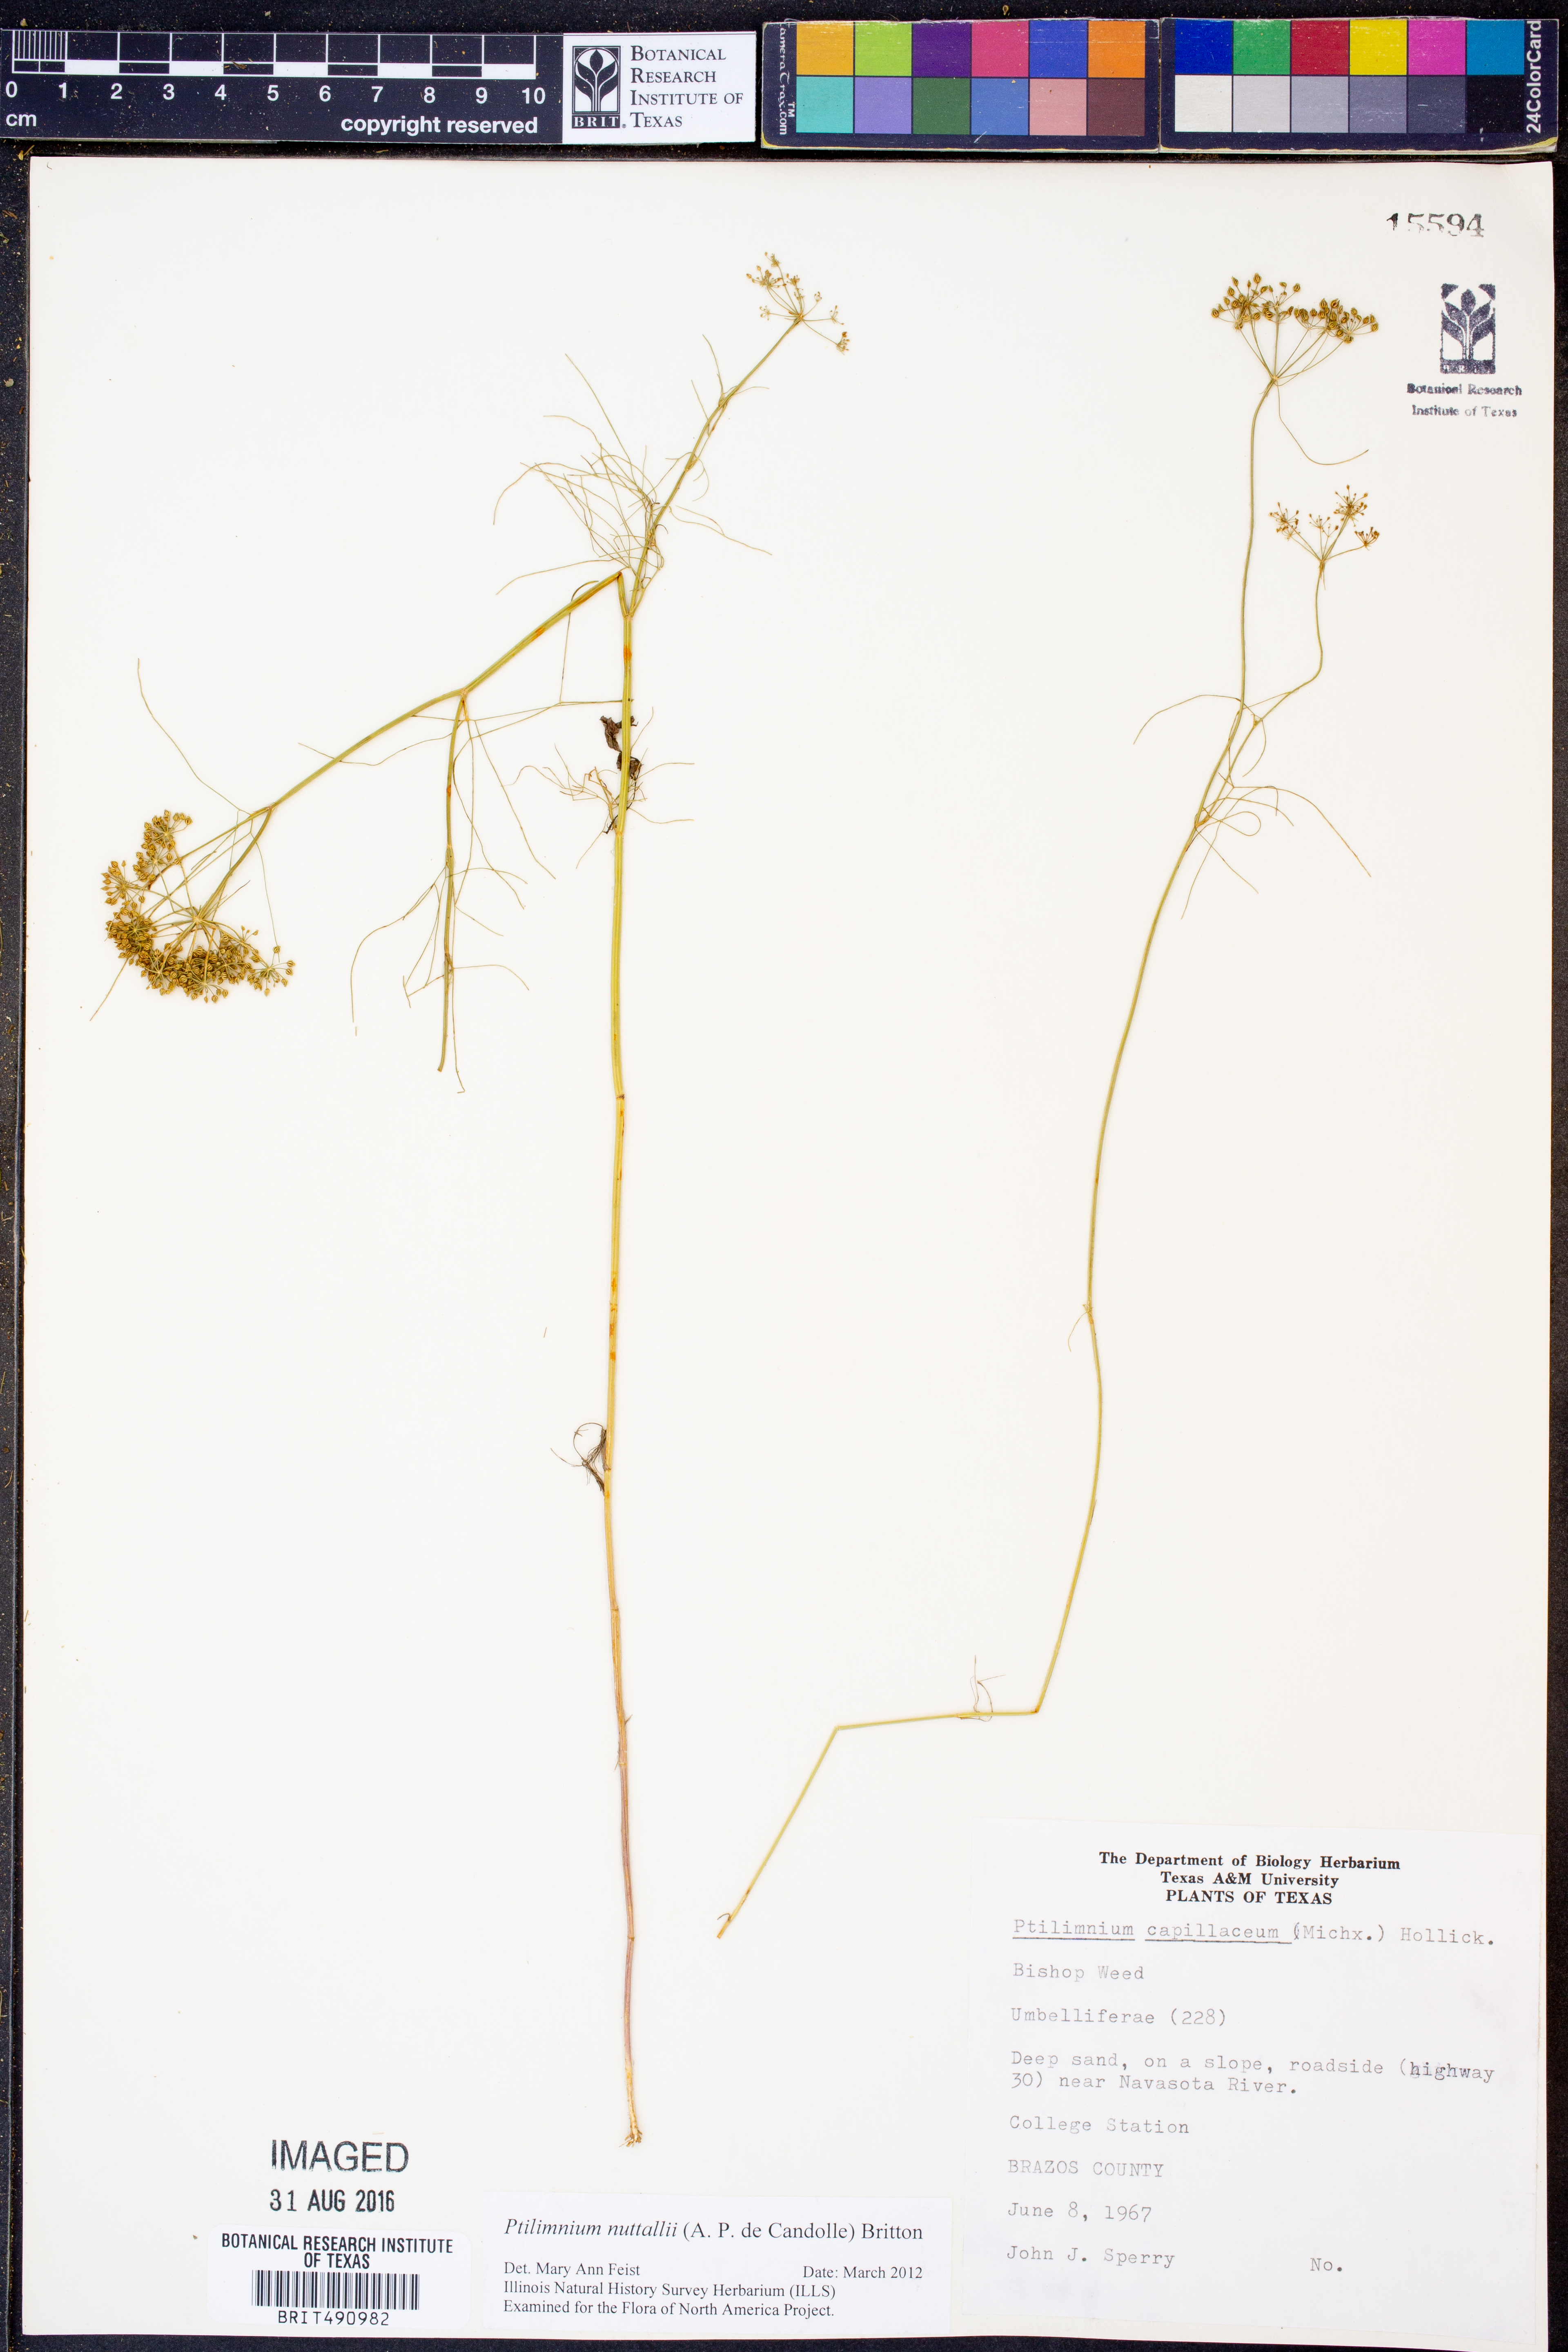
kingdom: Plantae
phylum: Tracheophyta
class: Magnoliopsida
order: Apiales
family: Apiaceae
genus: Ptilimnium
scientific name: Ptilimnium nuttallii
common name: Ozark bishop's-weed
